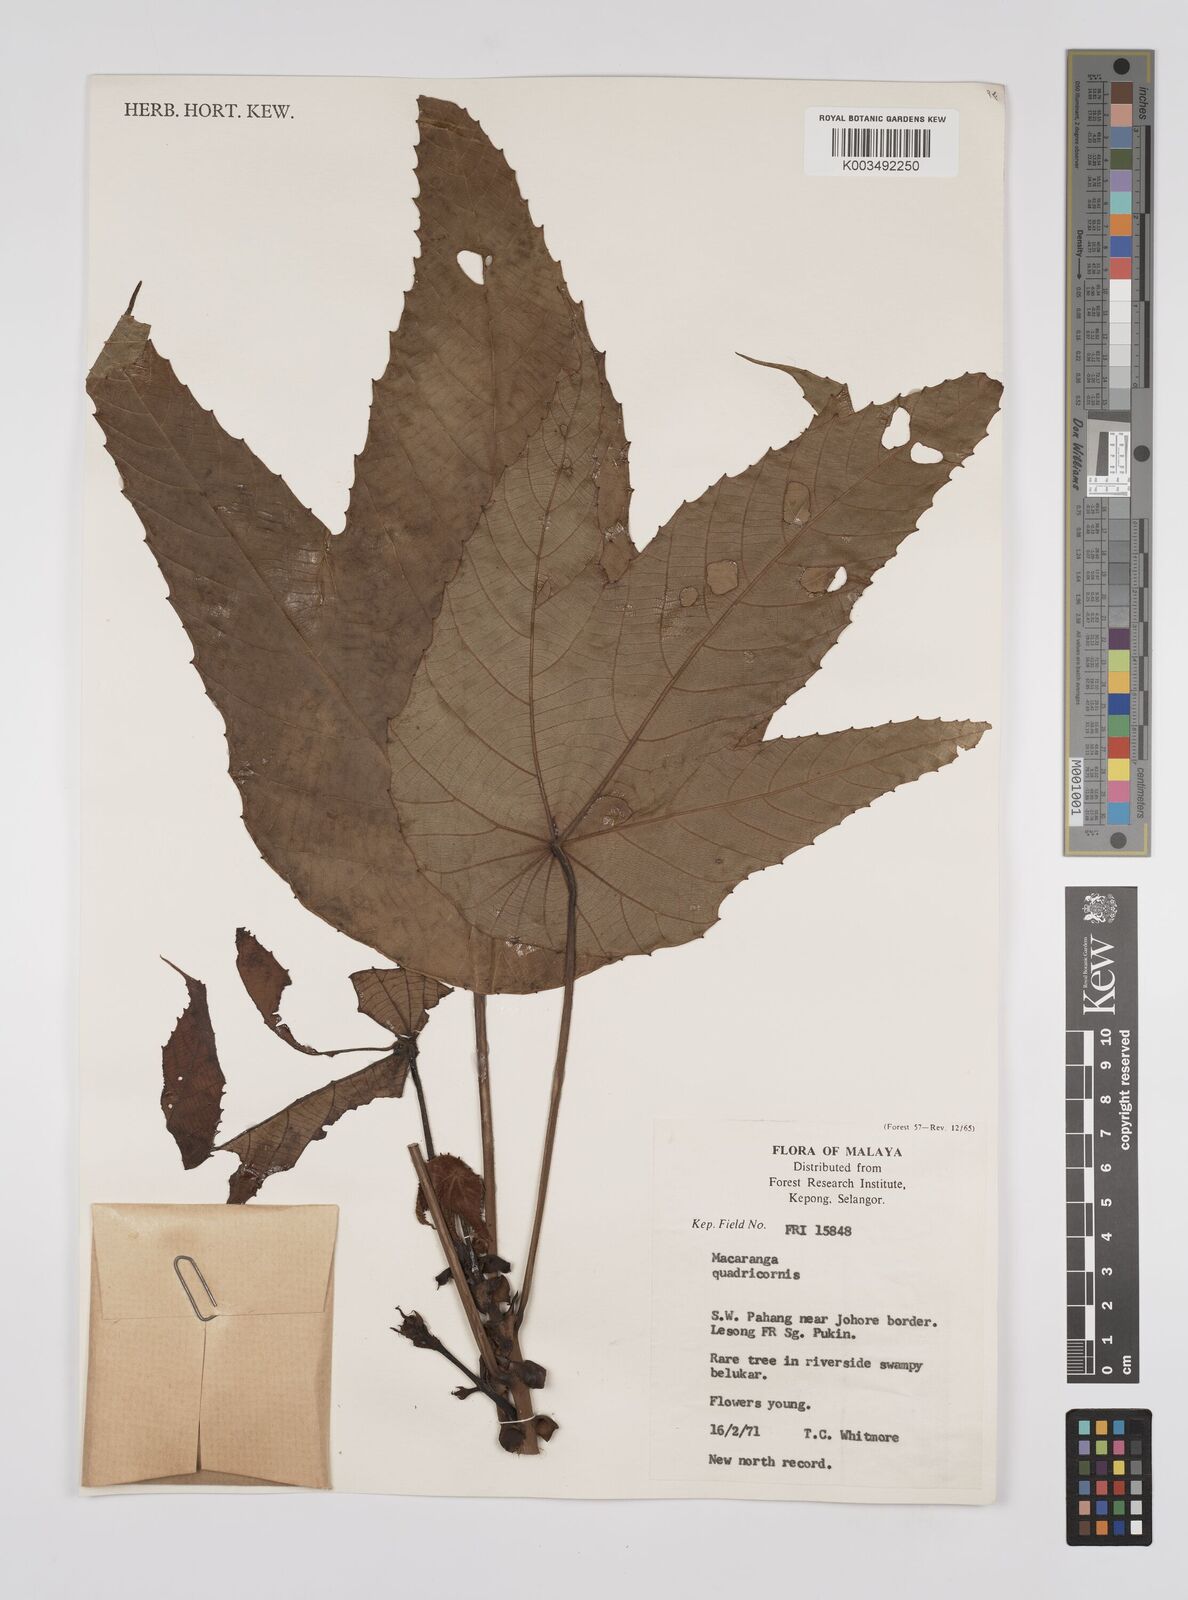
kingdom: Plantae
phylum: Tracheophyta
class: Magnoliopsida
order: Malpighiales
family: Euphorbiaceae
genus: Macaranga
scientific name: Macaranga triloba
